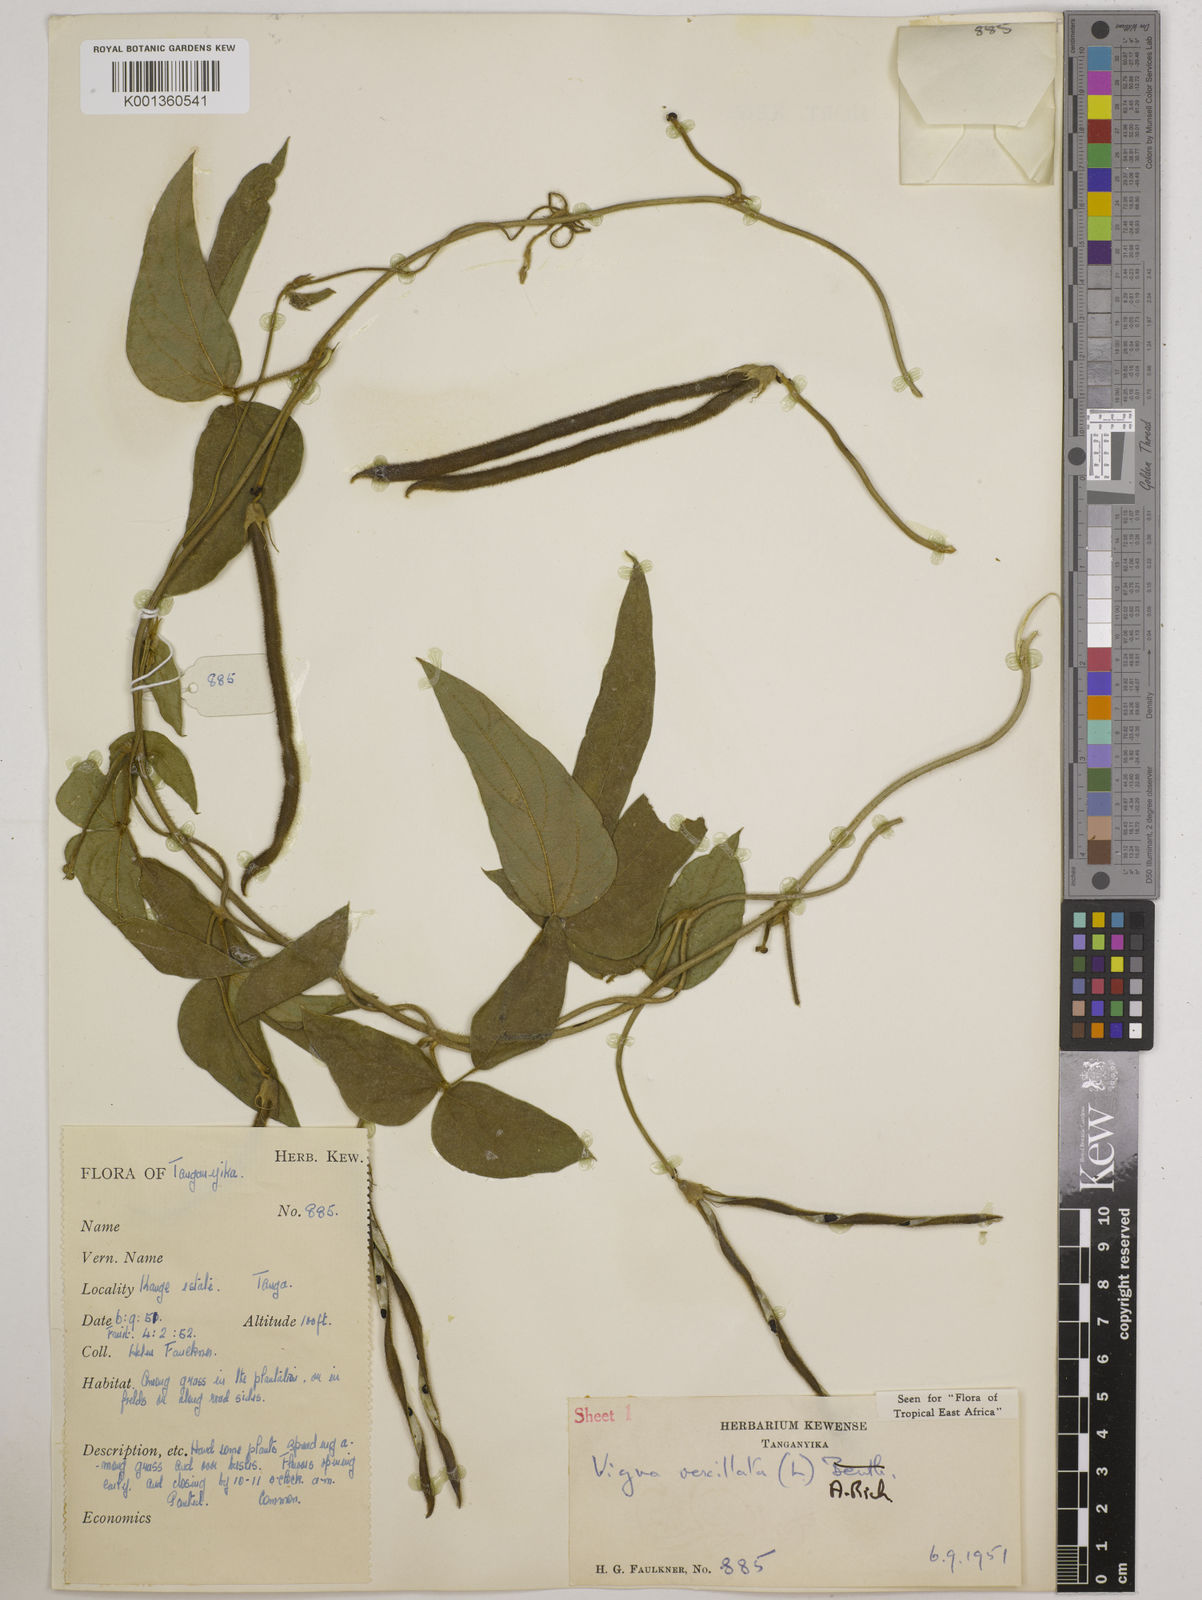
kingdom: Plantae
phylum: Tracheophyta
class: Magnoliopsida
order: Fabales
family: Fabaceae
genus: Vigna
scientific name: Vigna vexillata
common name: Zombi pea
